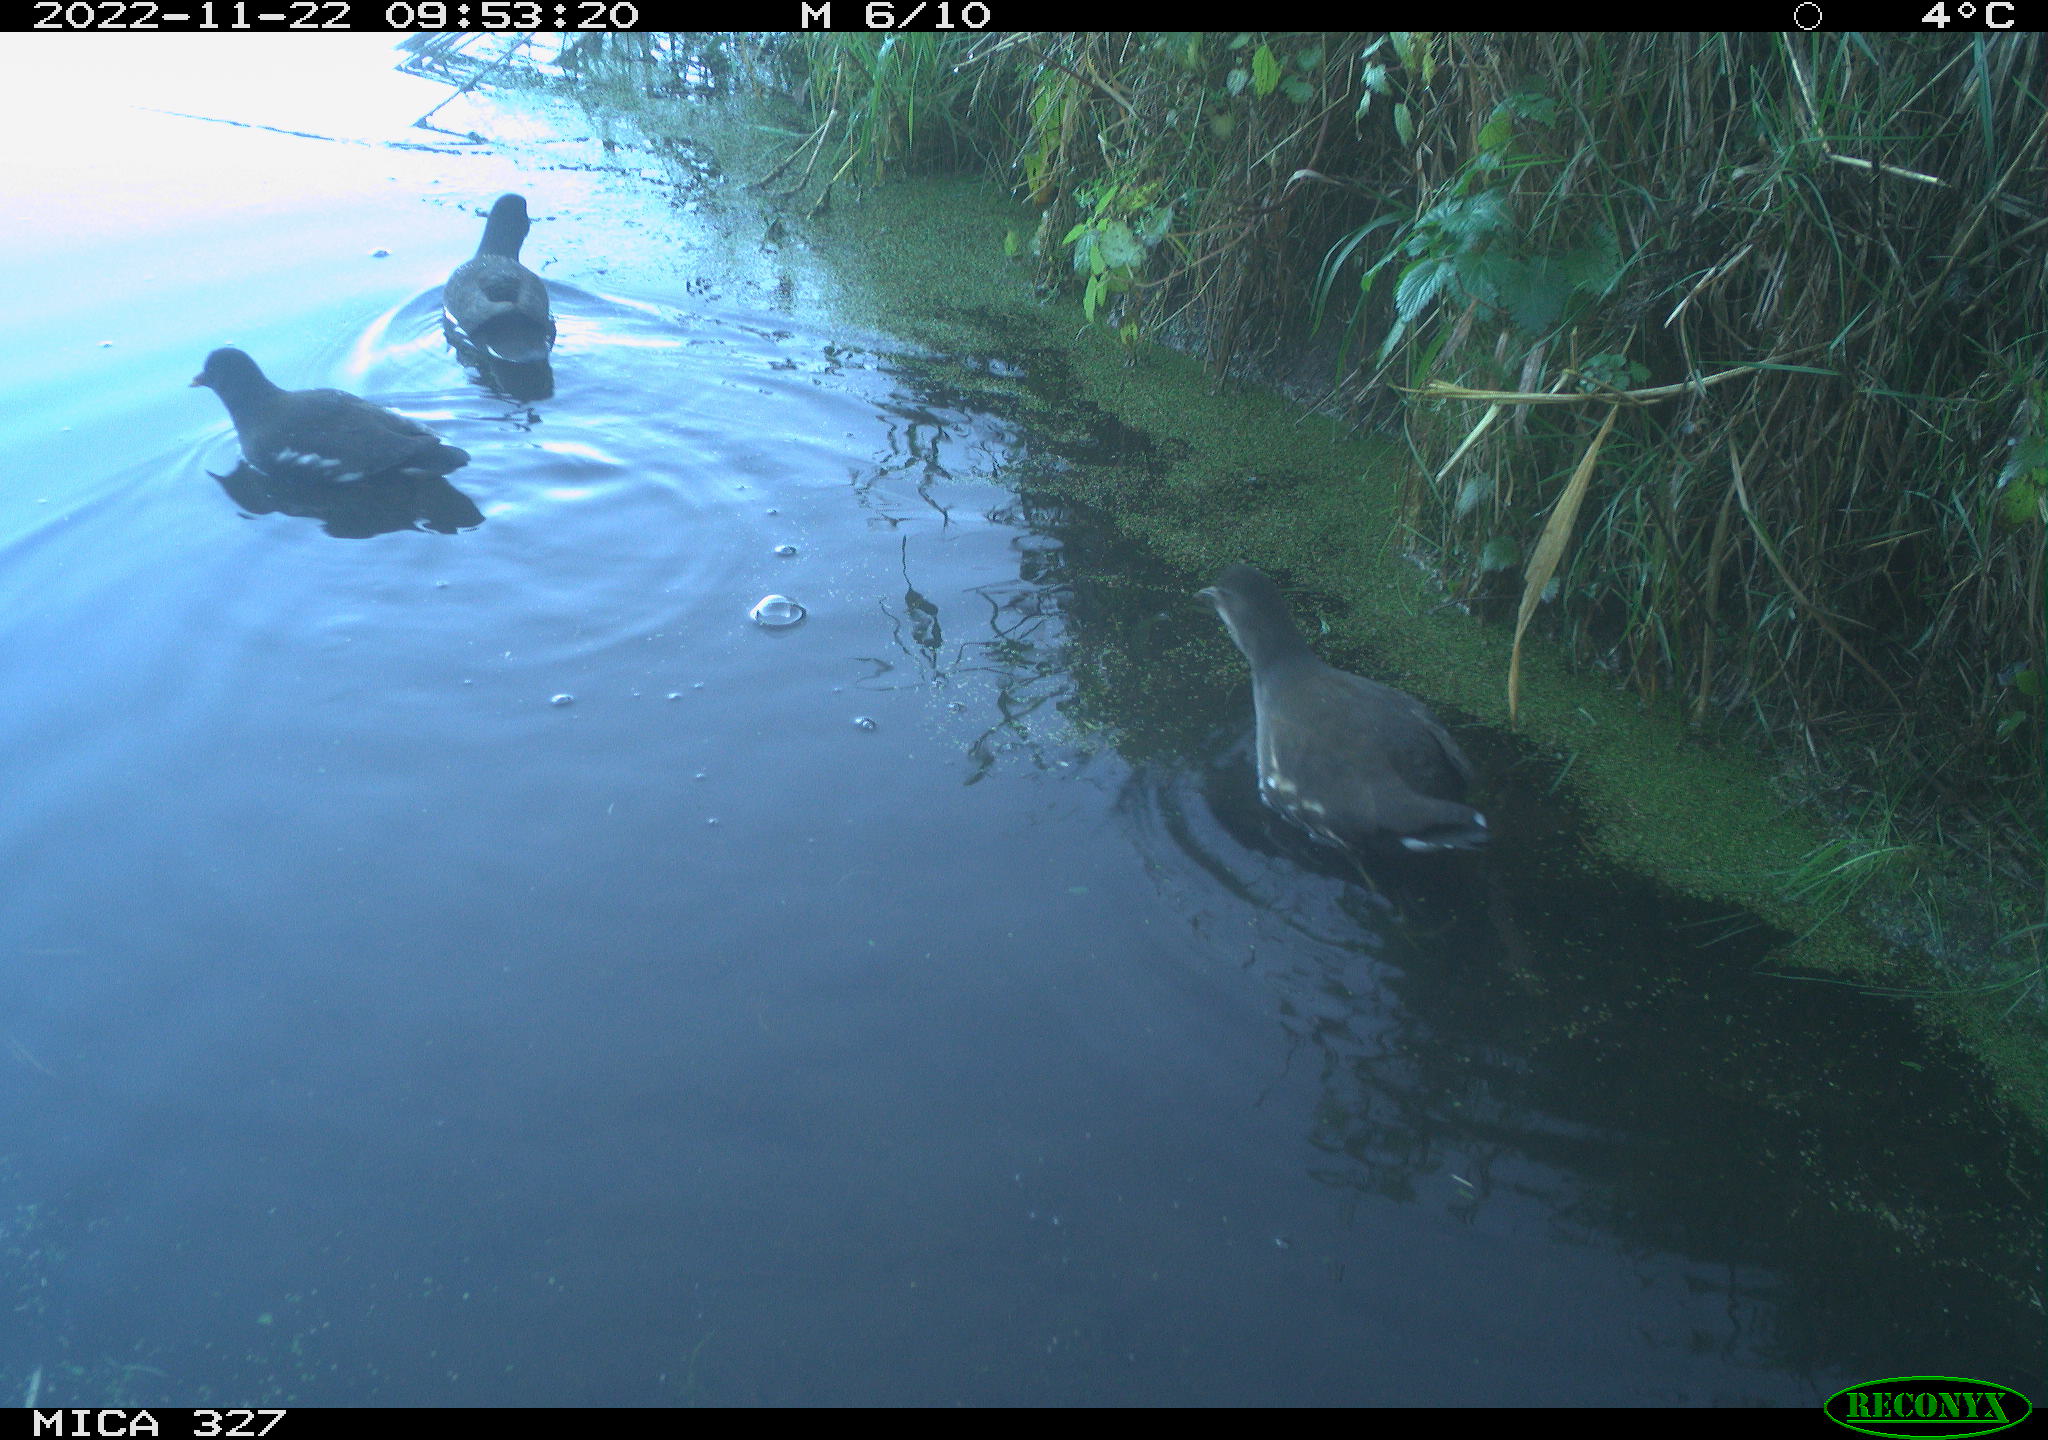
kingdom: Animalia
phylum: Chordata
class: Aves
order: Gruiformes
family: Rallidae
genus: Gallinula
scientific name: Gallinula chloropus
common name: Common moorhen
